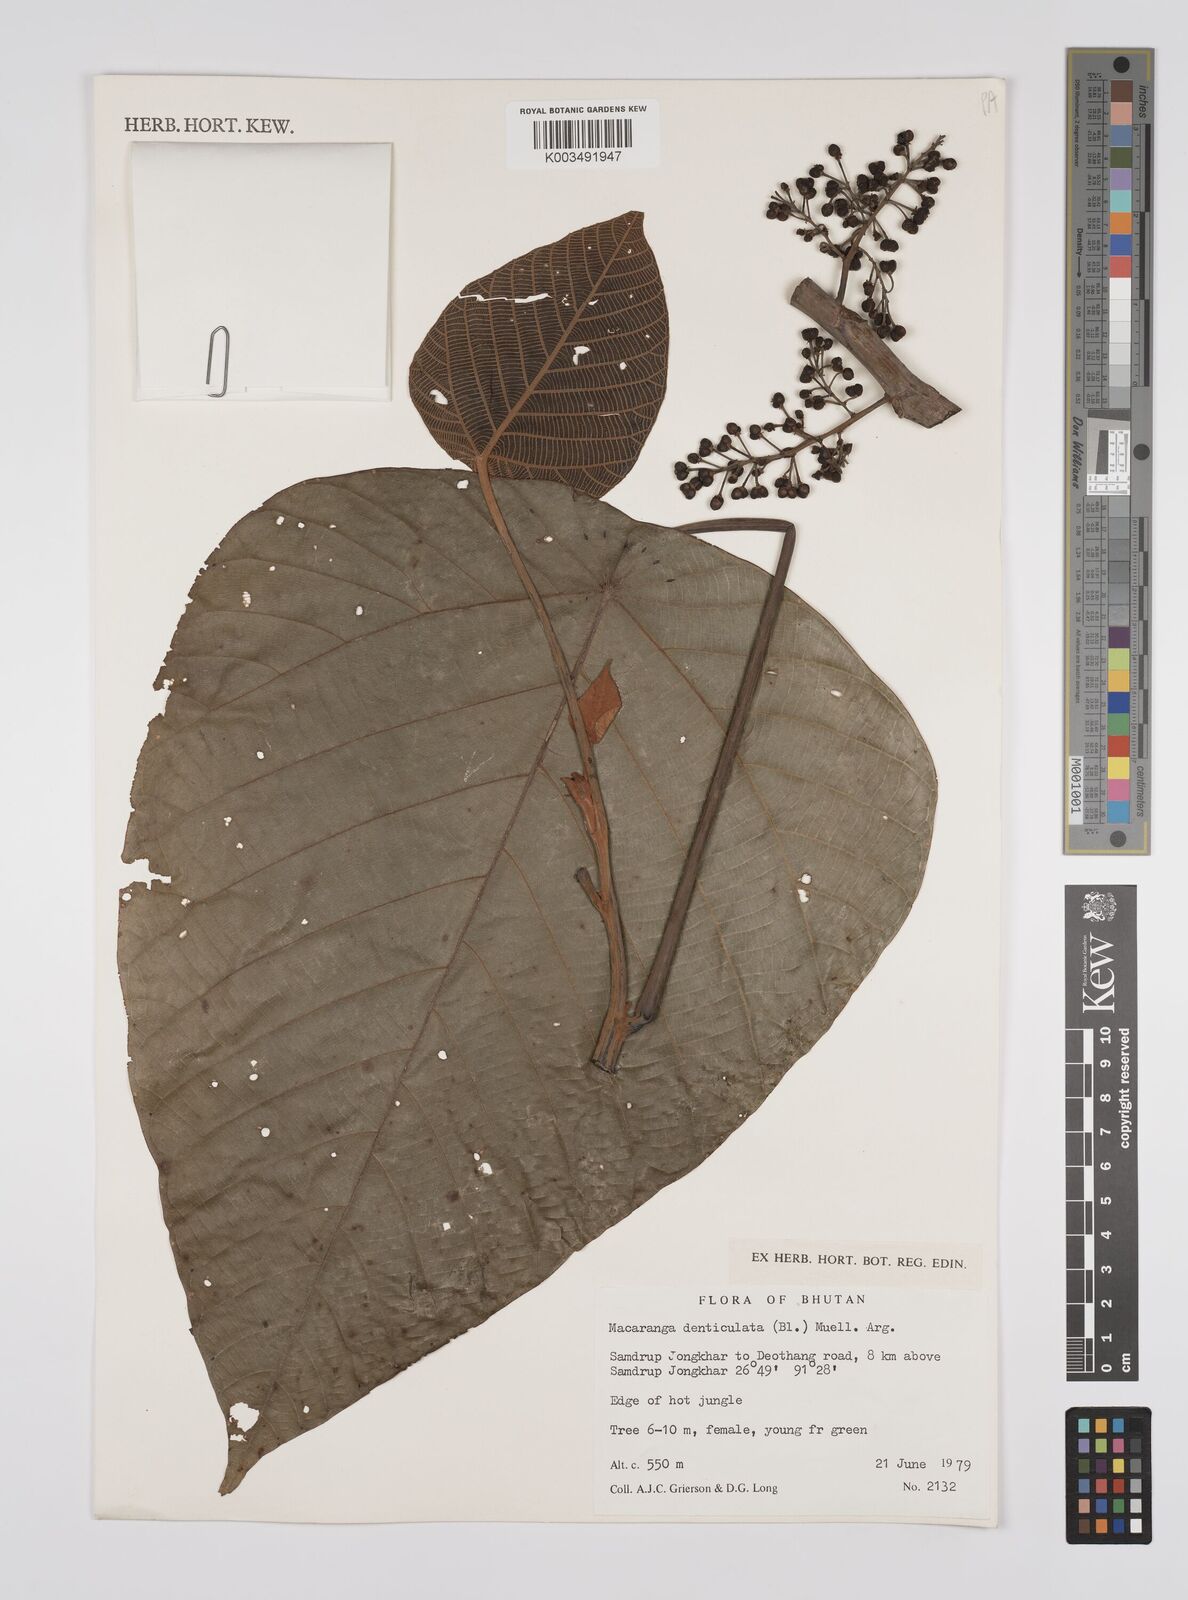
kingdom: Plantae
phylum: Tracheophyta
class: Magnoliopsida
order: Malpighiales
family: Euphorbiaceae
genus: Macaranga
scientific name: Macaranga denticulata
